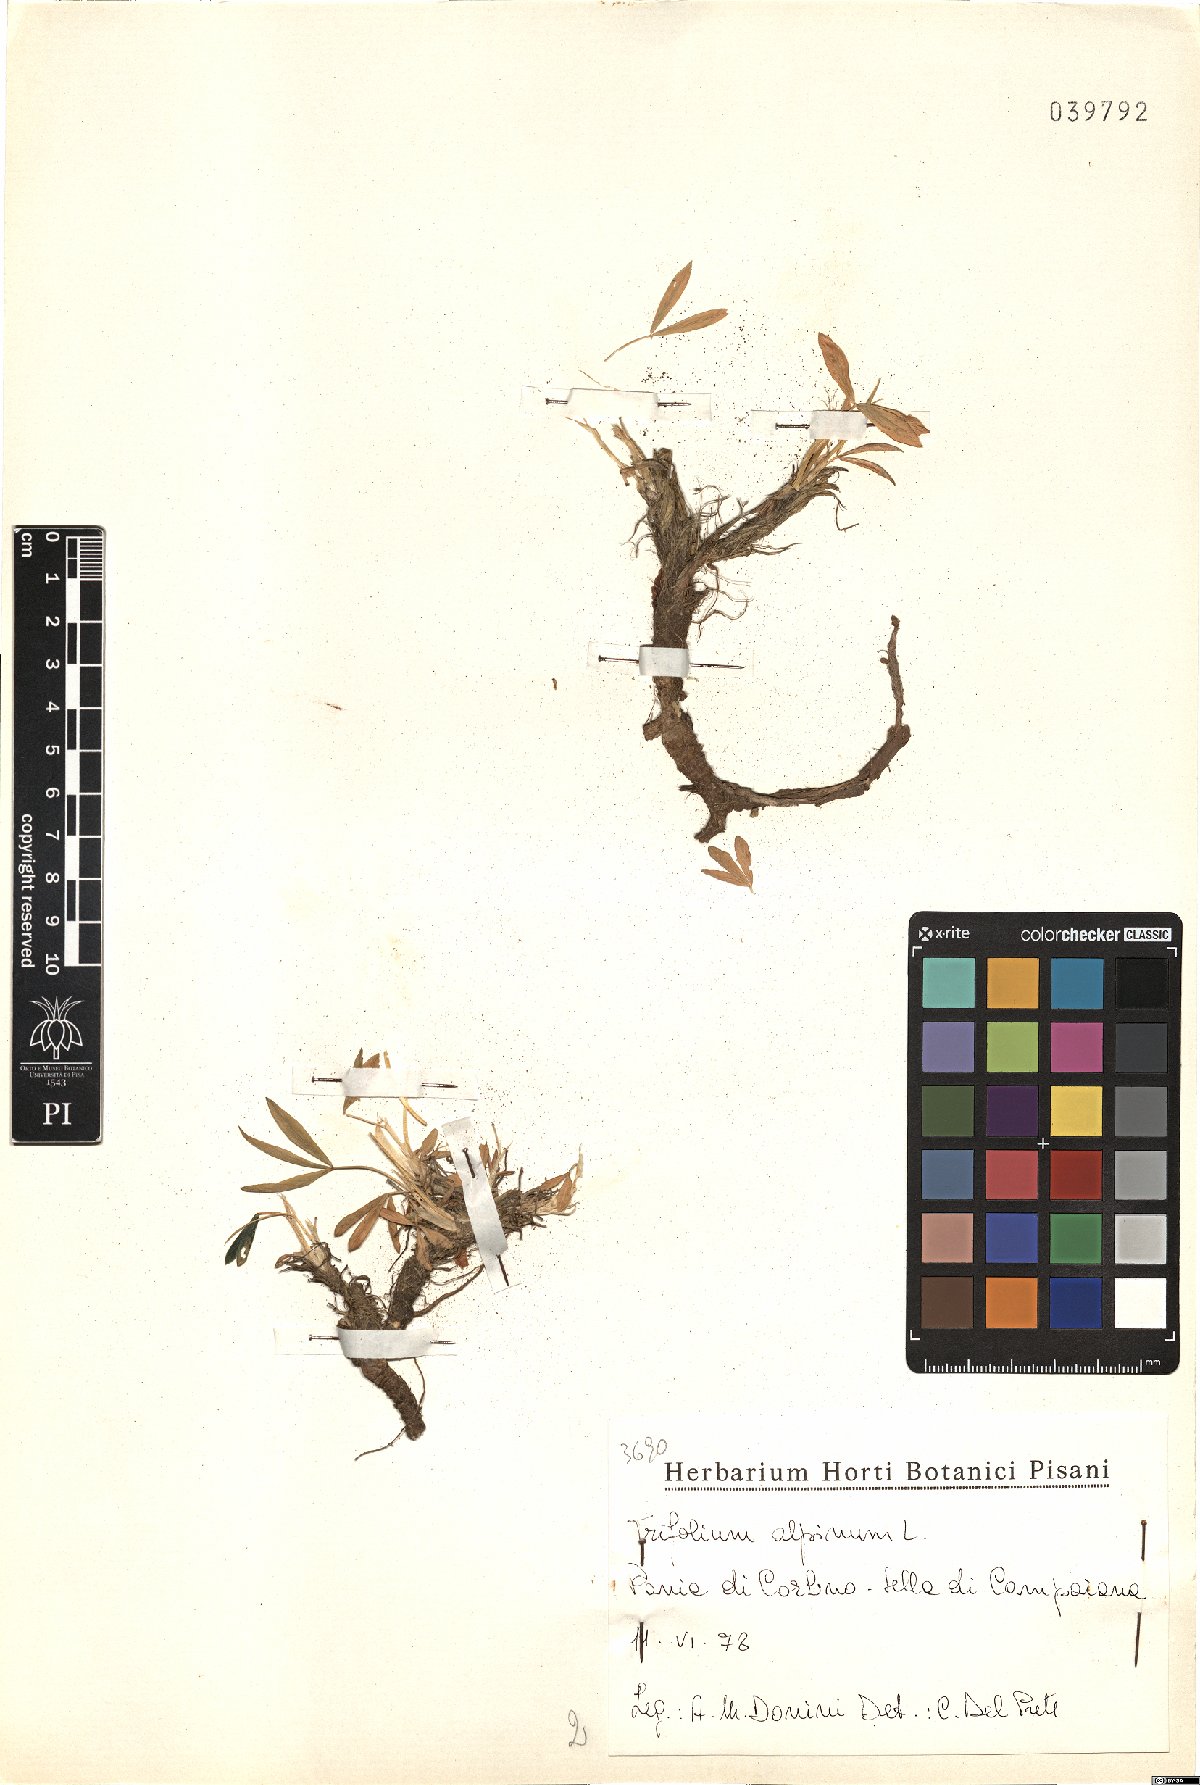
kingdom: Plantae
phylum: Tracheophyta
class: Magnoliopsida
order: Fabales
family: Fabaceae
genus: Trifolium
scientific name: Trifolium alpinum
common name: Alpine clover
